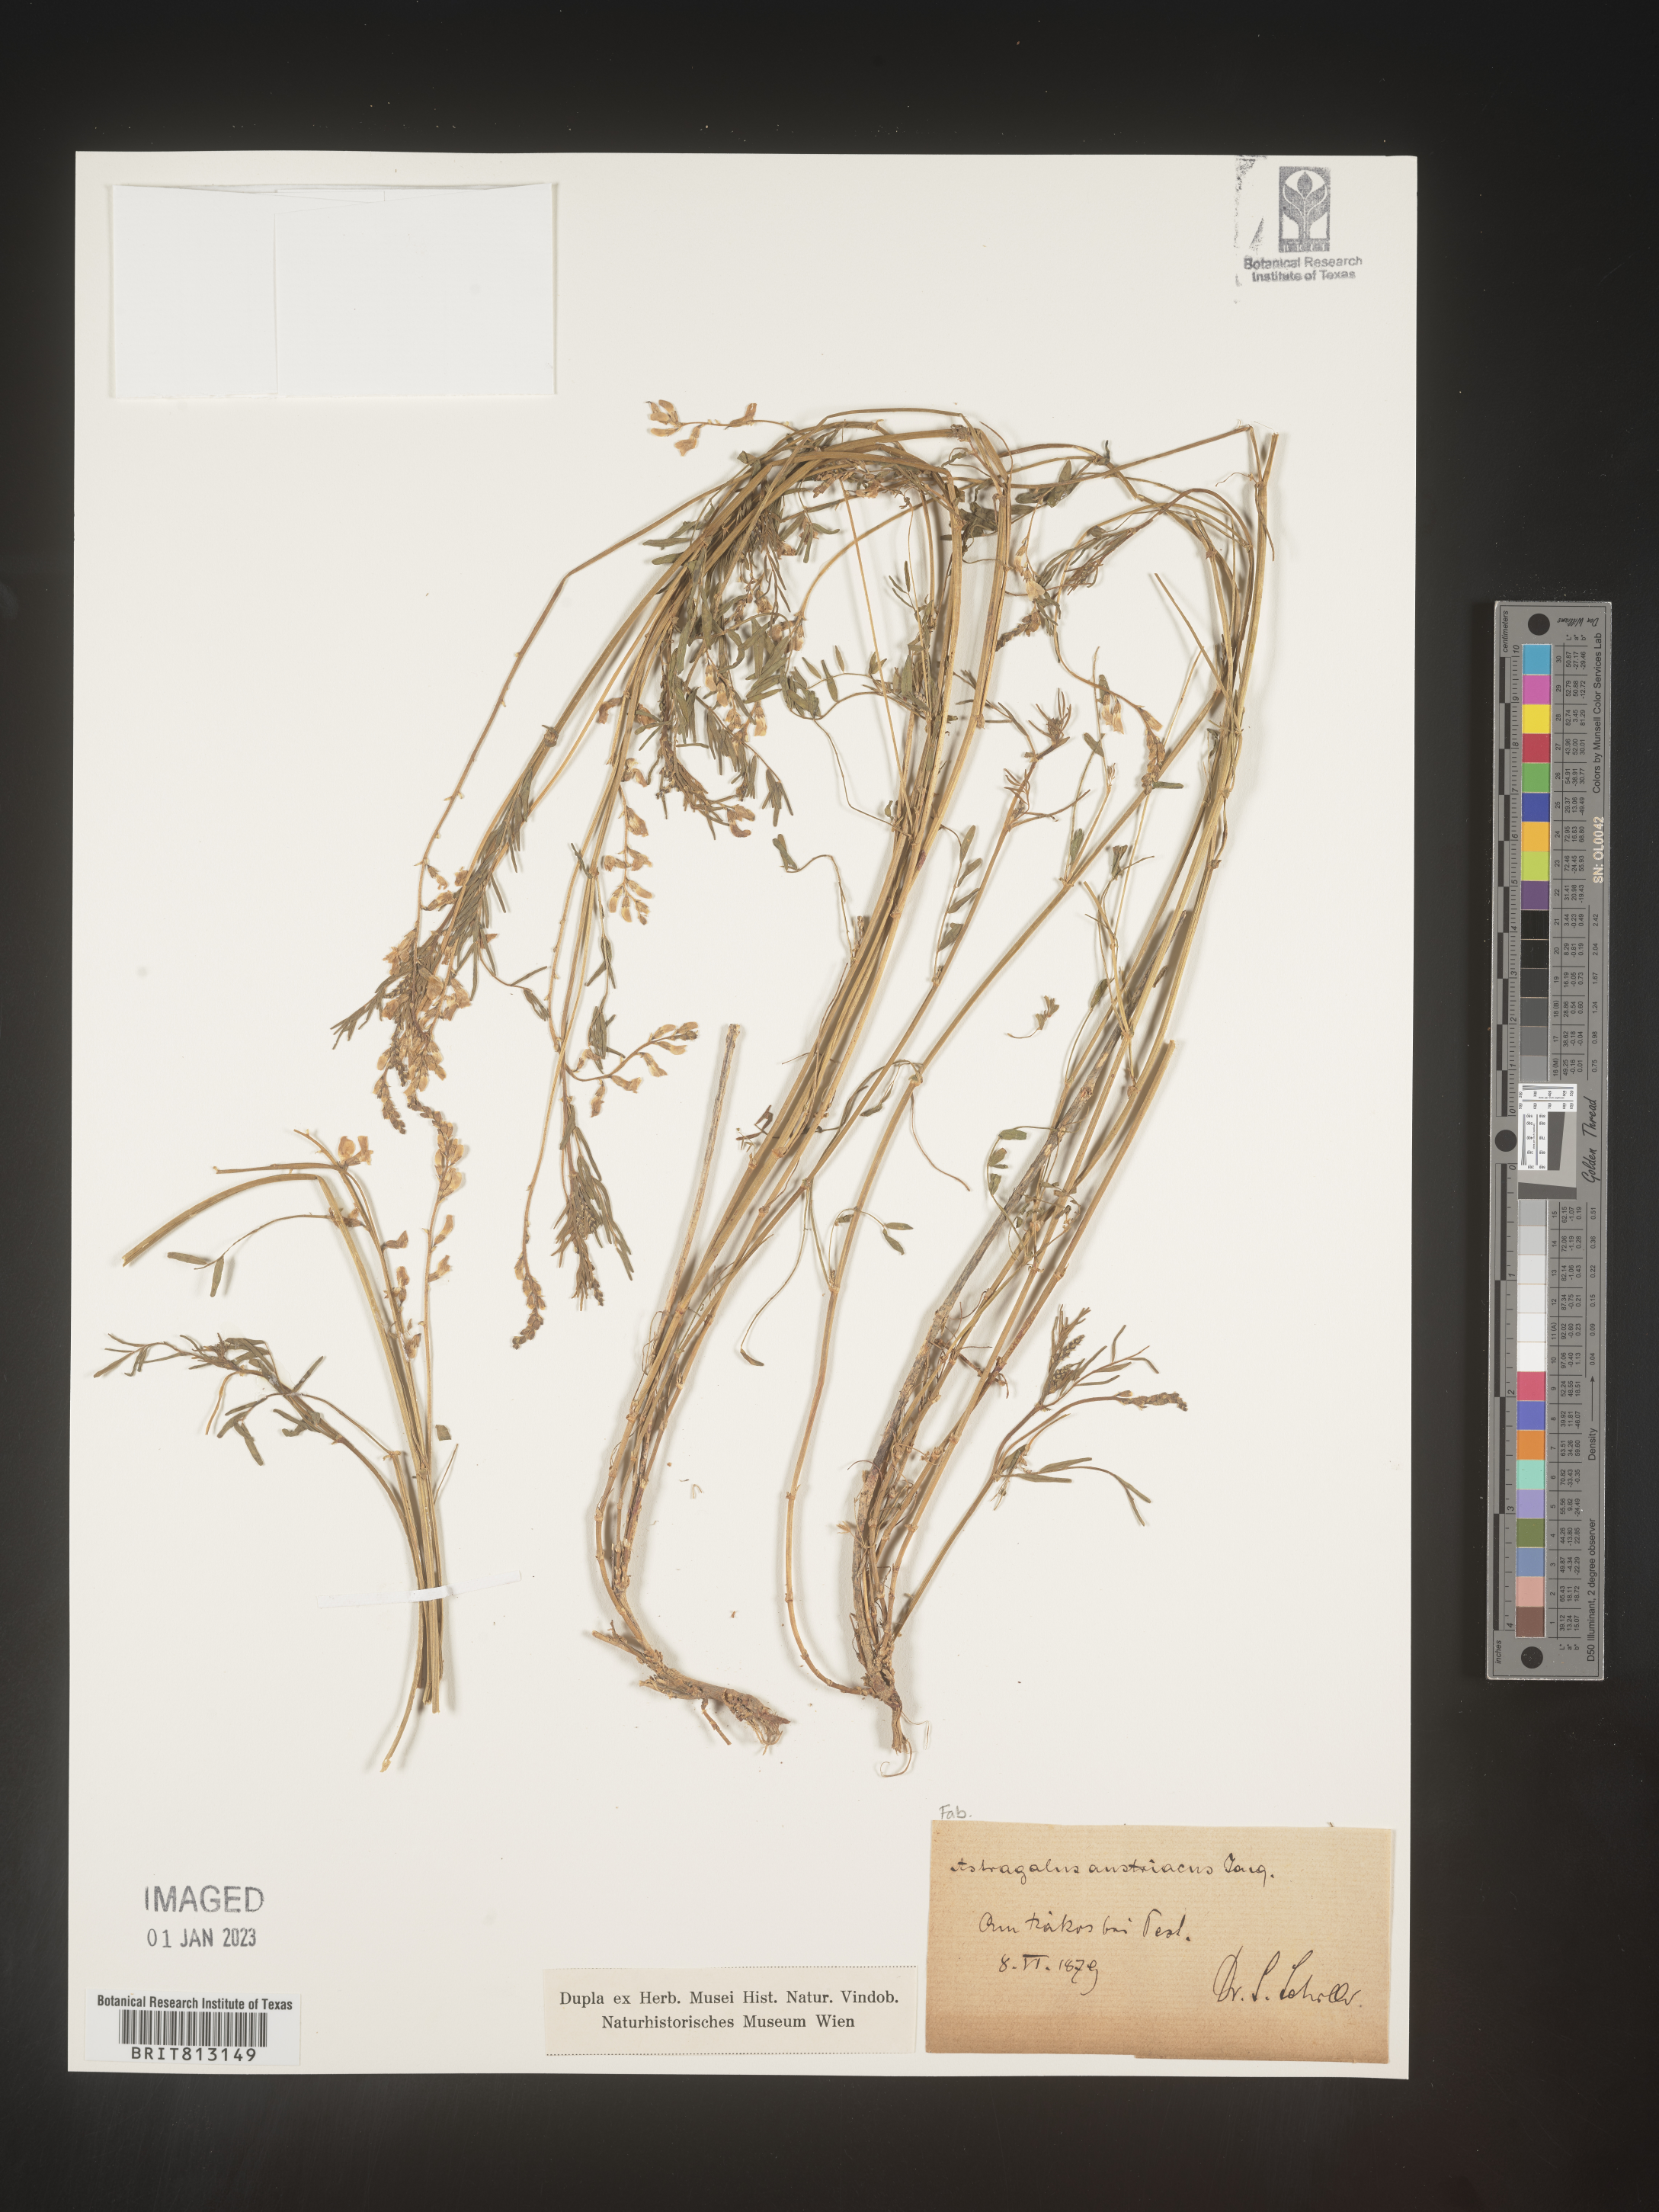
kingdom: Plantae
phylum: Tracheophyta
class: Magnoliopsida
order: Fabales
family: Fabaceae
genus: Astragalus
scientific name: Astragalus
